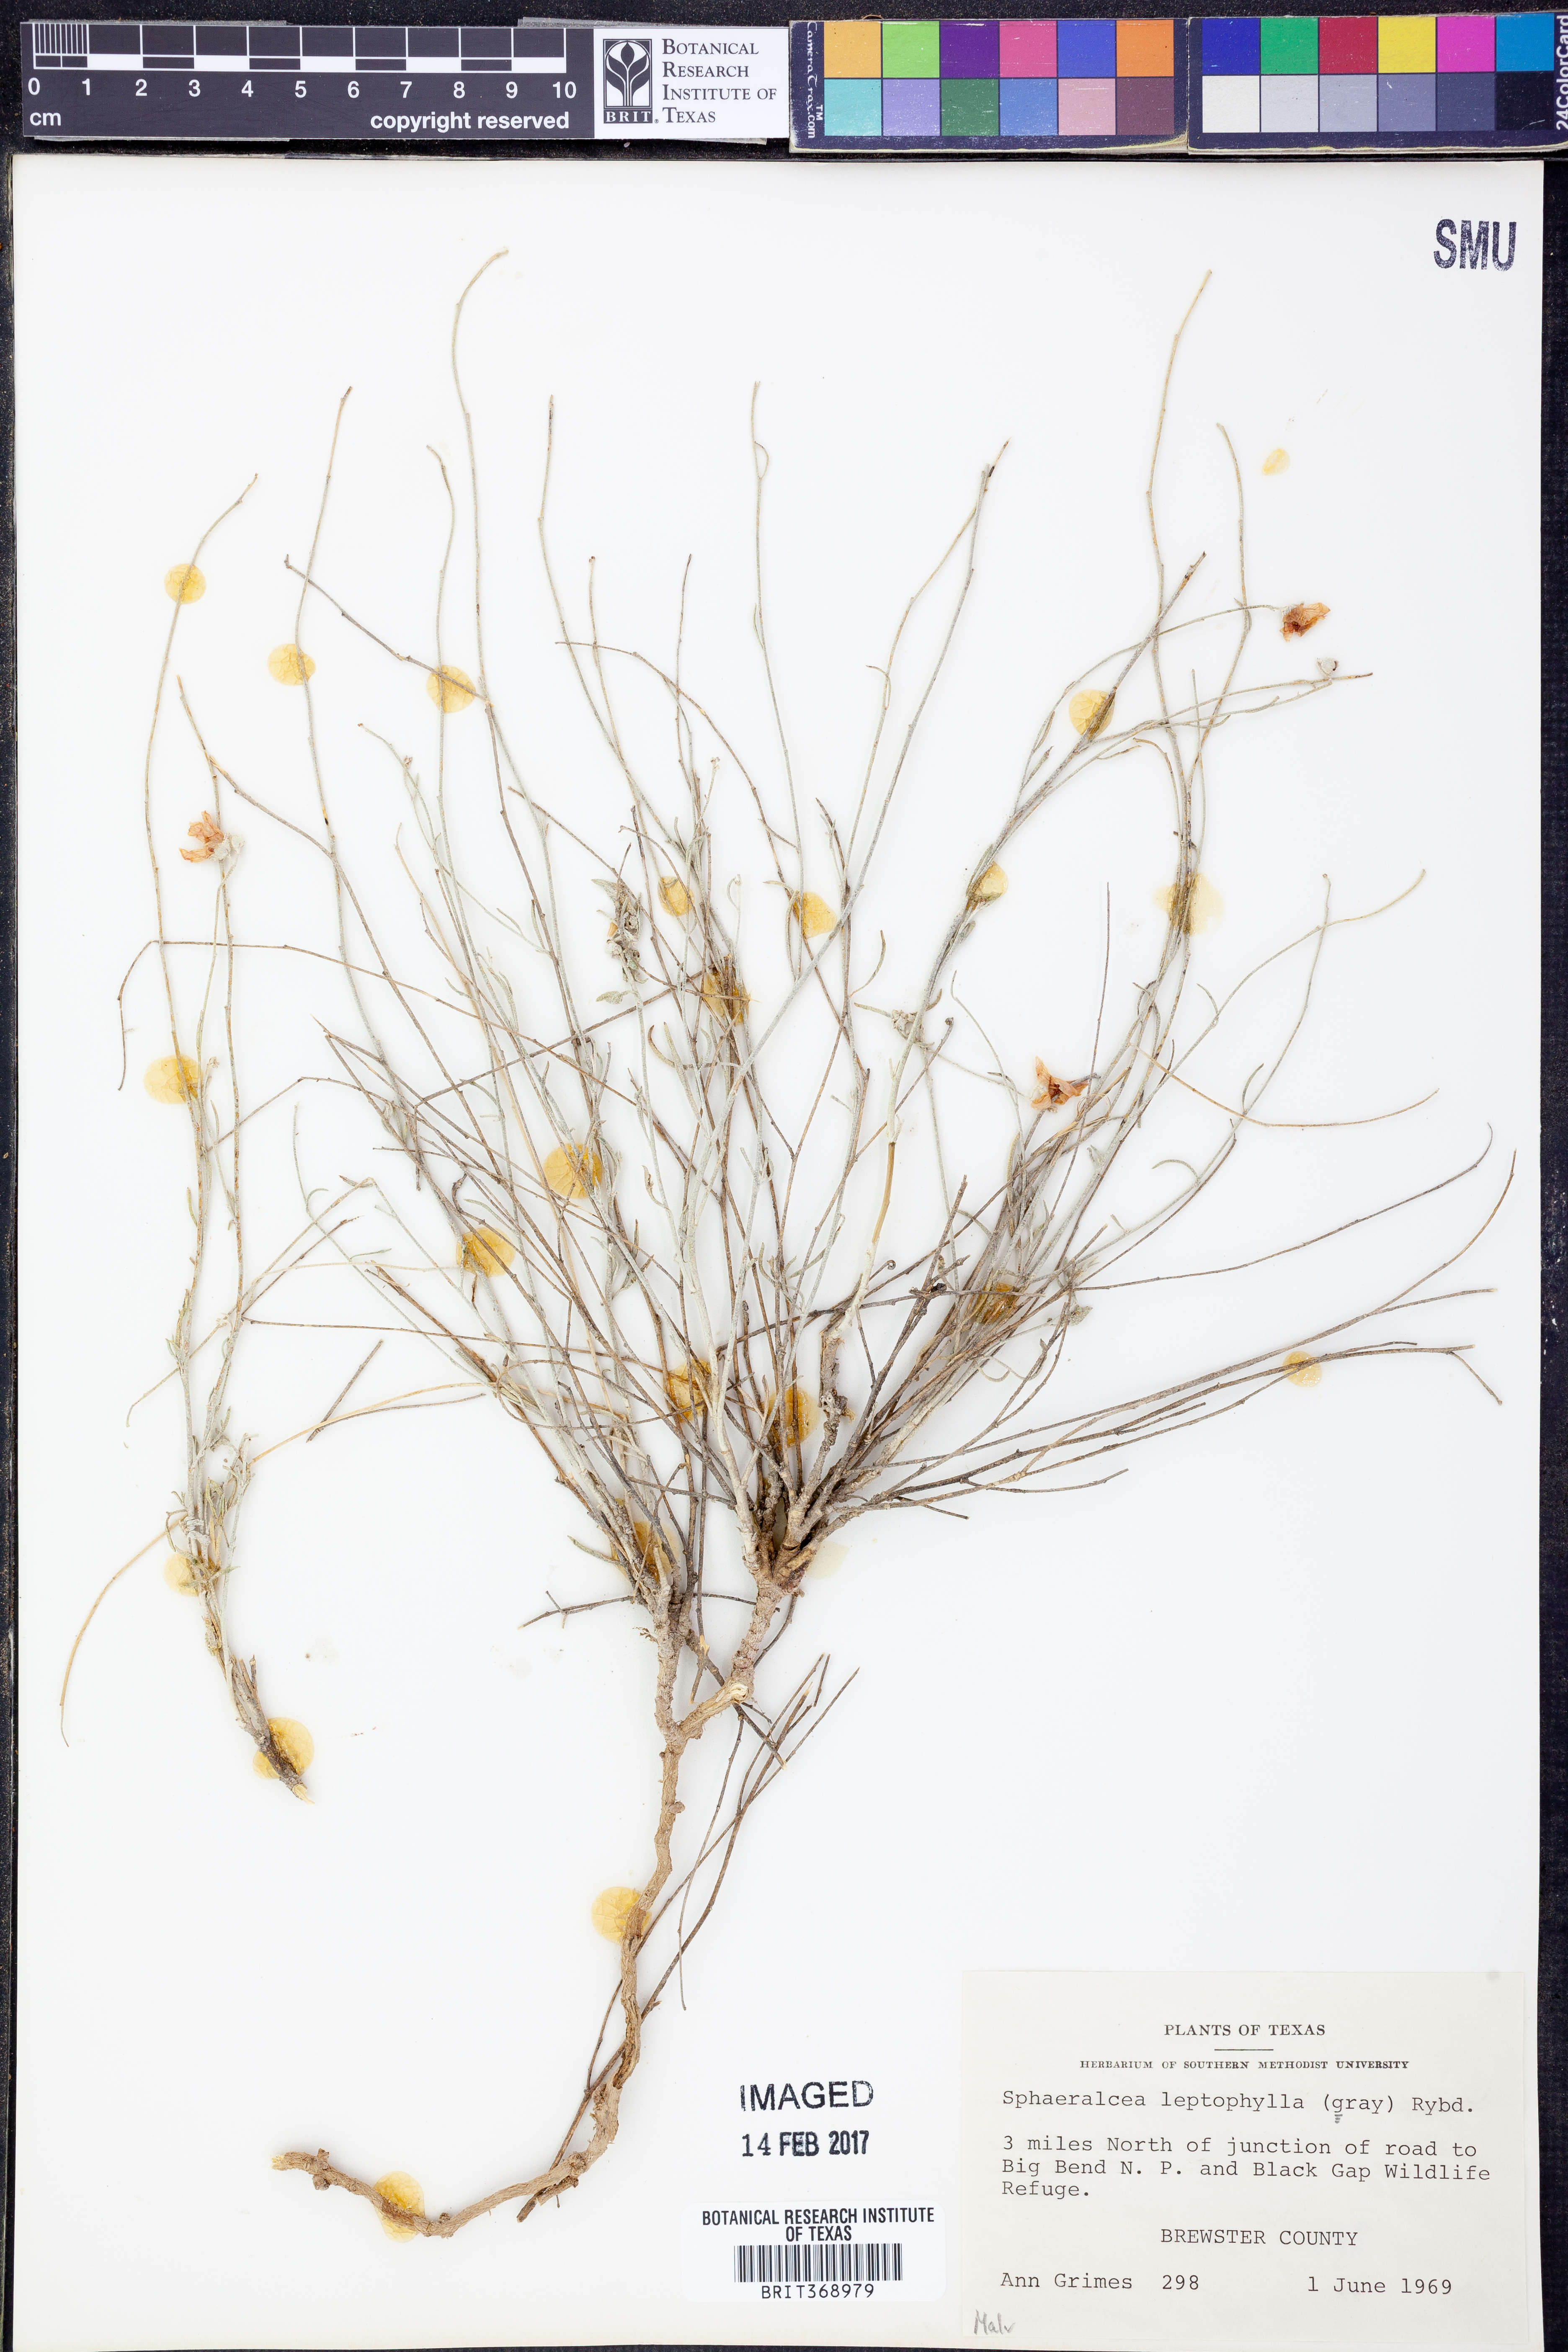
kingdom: Plantae
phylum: Tracheophyta
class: Magnoliopsida
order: Malvales
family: Malvaceae
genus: Sphaeralcea
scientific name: Sphaeralcea leptophylla
